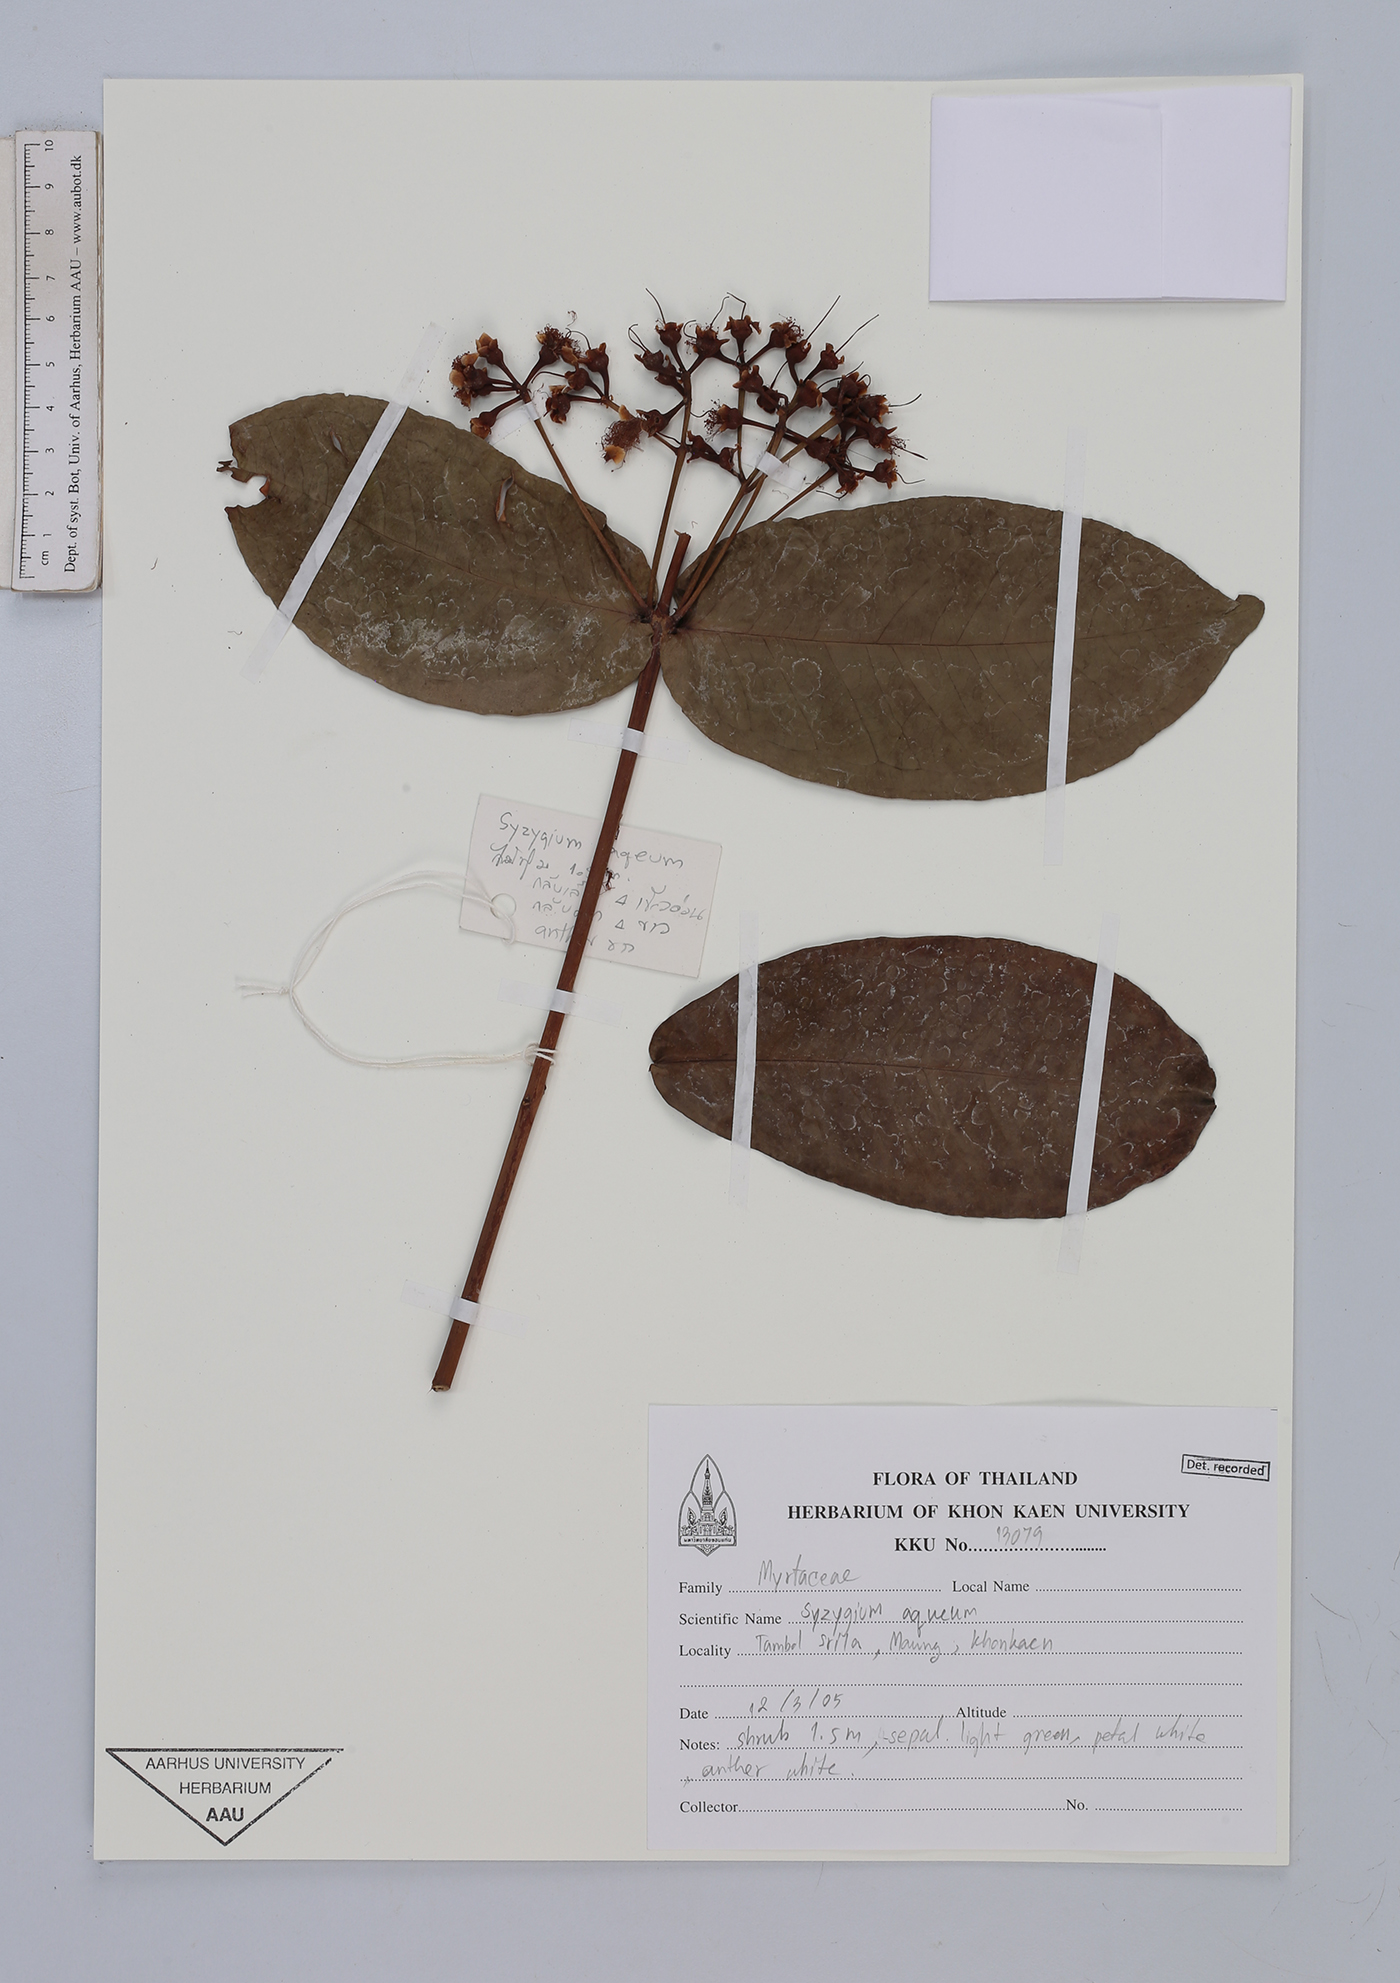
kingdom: Plantae
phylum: Tracheophyta
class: Magnoliopsida
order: Myrtales
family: Myrtaceae
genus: Syzygium
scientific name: Syzygium aqueum
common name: Water-apple
